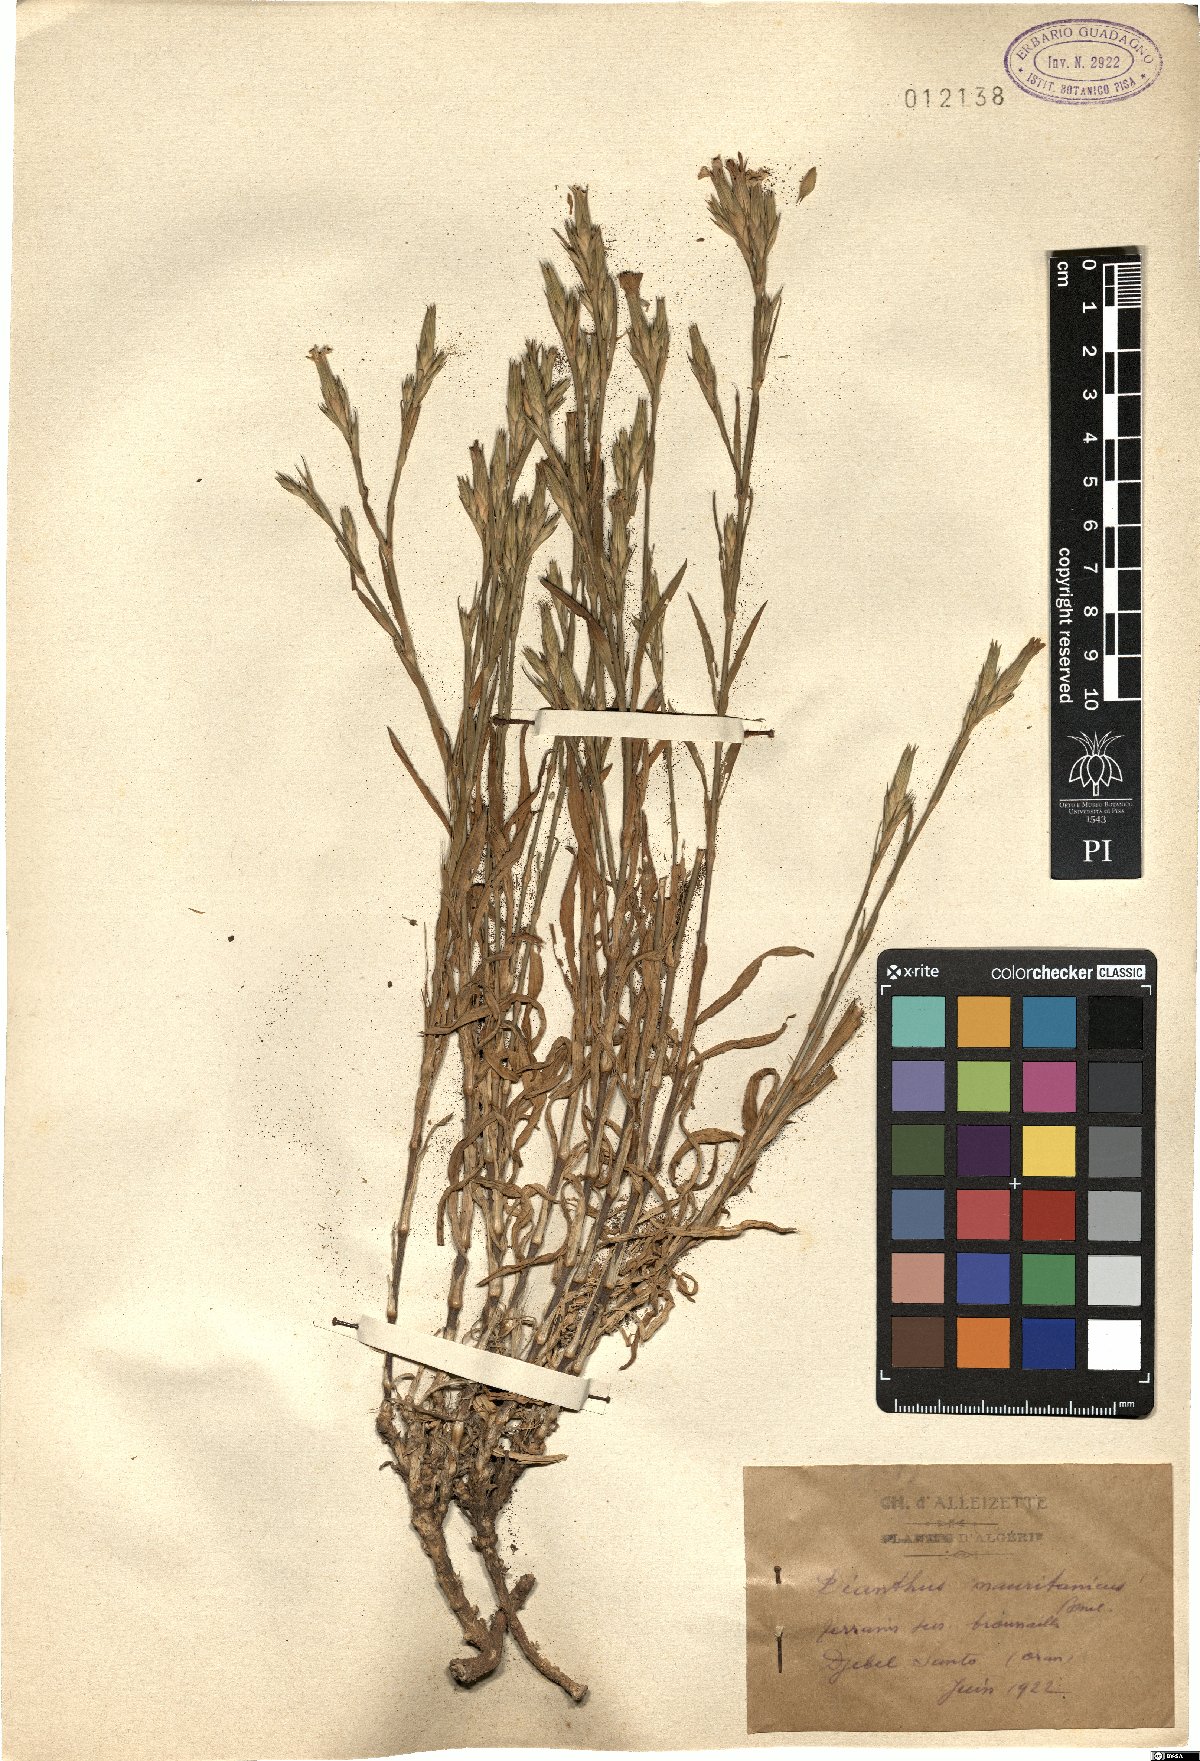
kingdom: Plantae
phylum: Tracheophyta
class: Magnoliopsida
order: Caryophyllales
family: Caryophyllaceae
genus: Dianthus
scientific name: Dianthus anticarius
